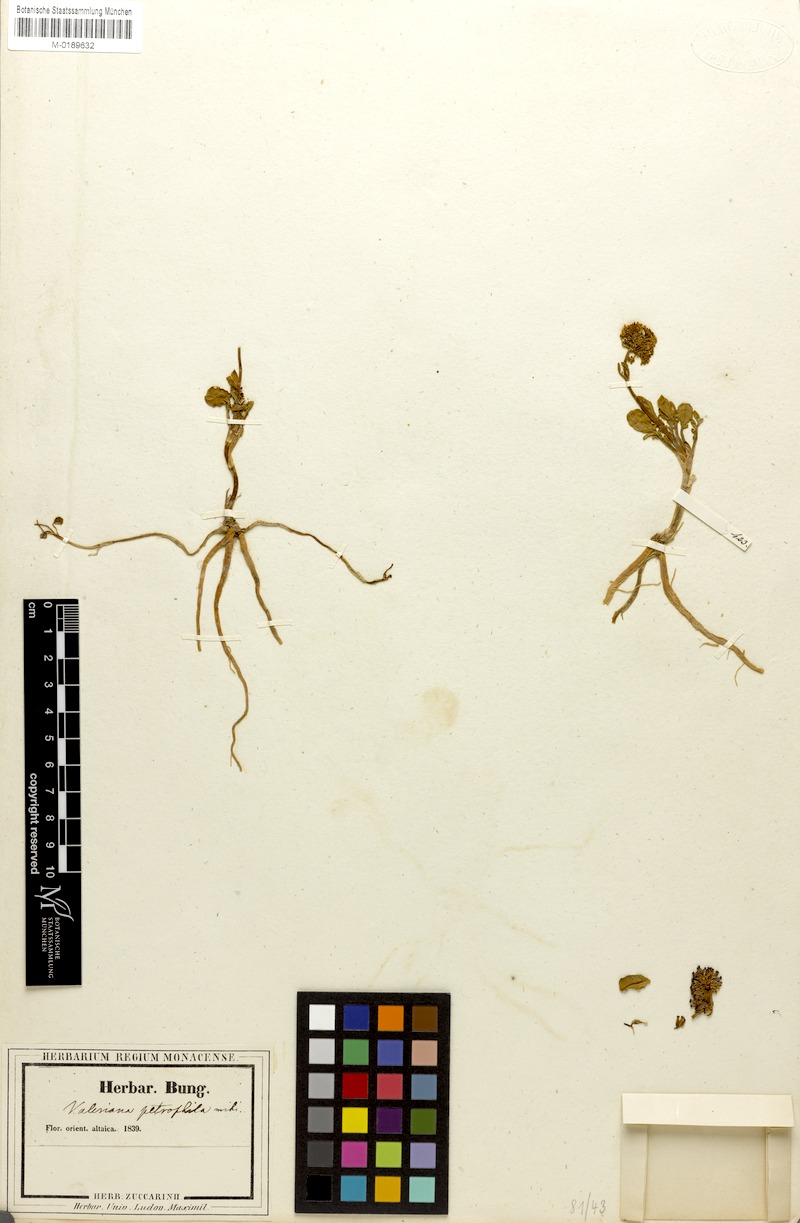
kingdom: Plantae
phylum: Tracheophyta
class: Magnoliopsida
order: Dipsacales
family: Caprifoliaceae
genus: Valeriana
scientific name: Valeriana petrophila
